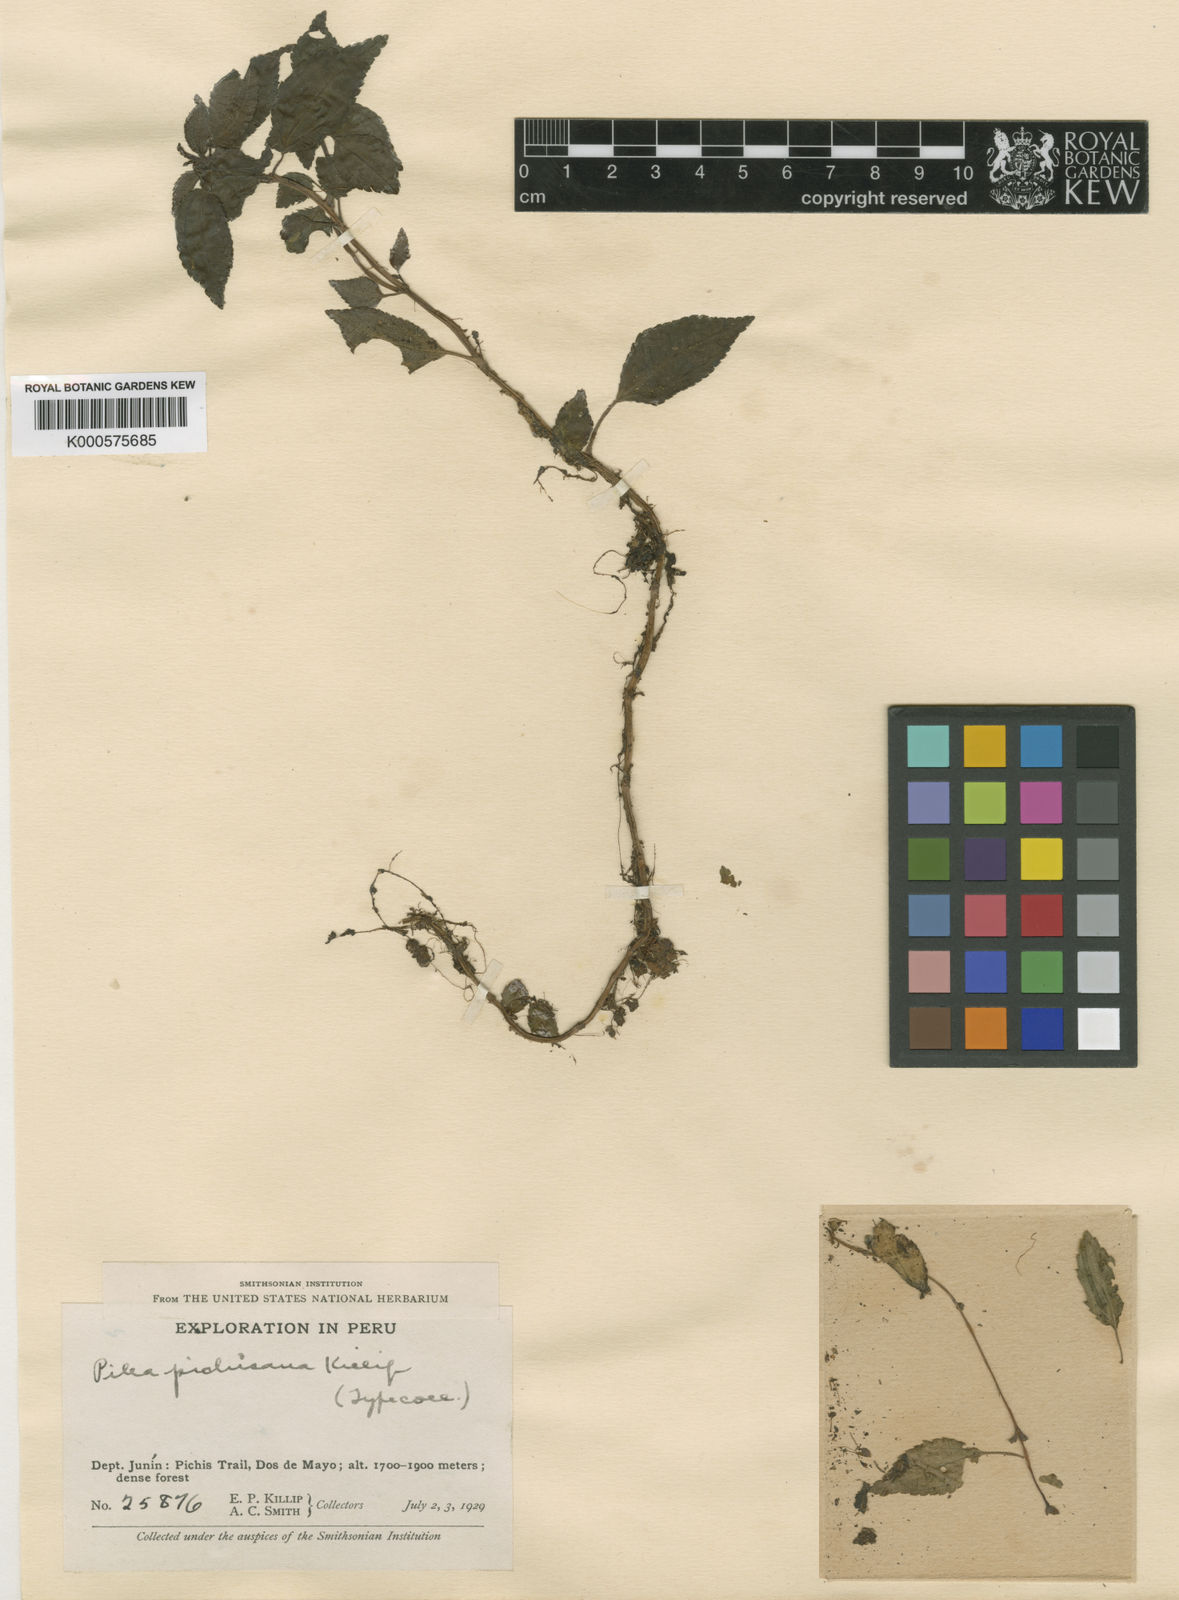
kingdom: Plantae
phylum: Tracheophyta
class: Magnoliopsida
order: Rosales
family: Urticaceae
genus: Pilea
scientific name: Pilea pichisana
